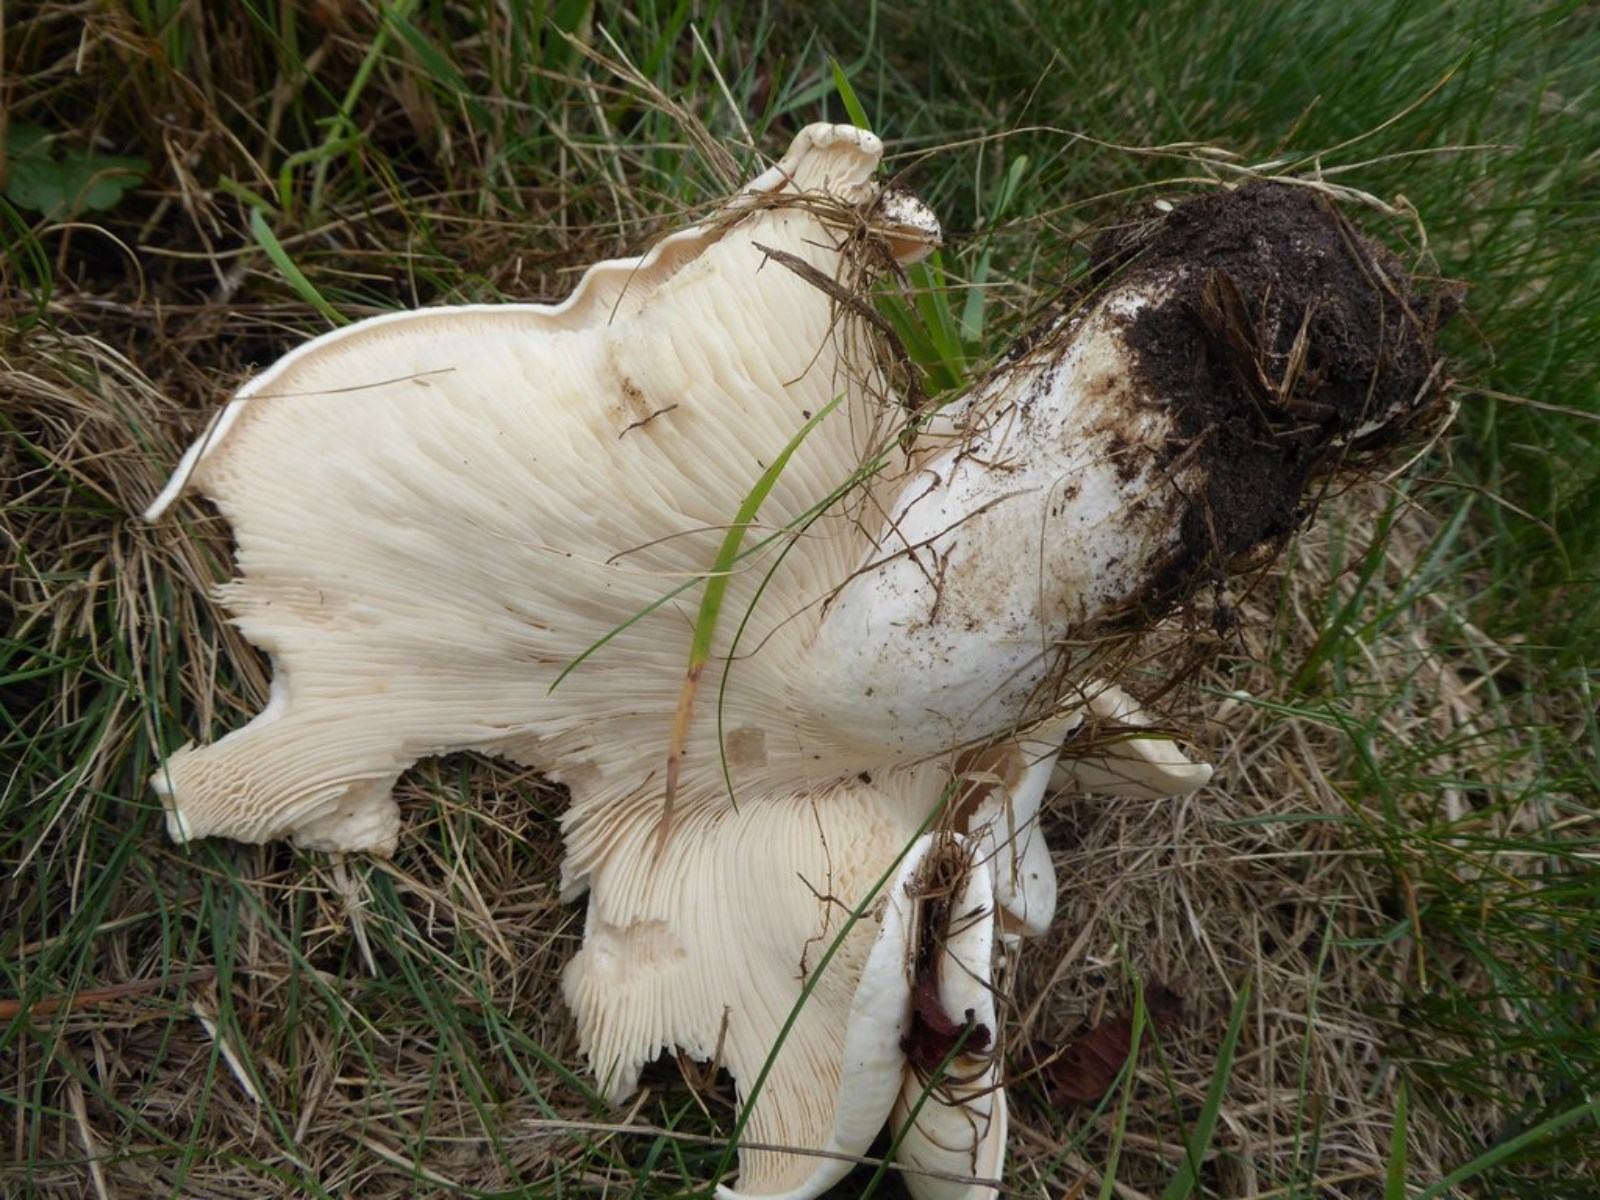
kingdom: Fungi
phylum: Basidiomycota
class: Agaricomycetes
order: Agaricales
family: Tricholomataceae
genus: Aspropaxillus
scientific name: Aspropaxillus giganteus
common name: kæmpe-tragtridderhat
